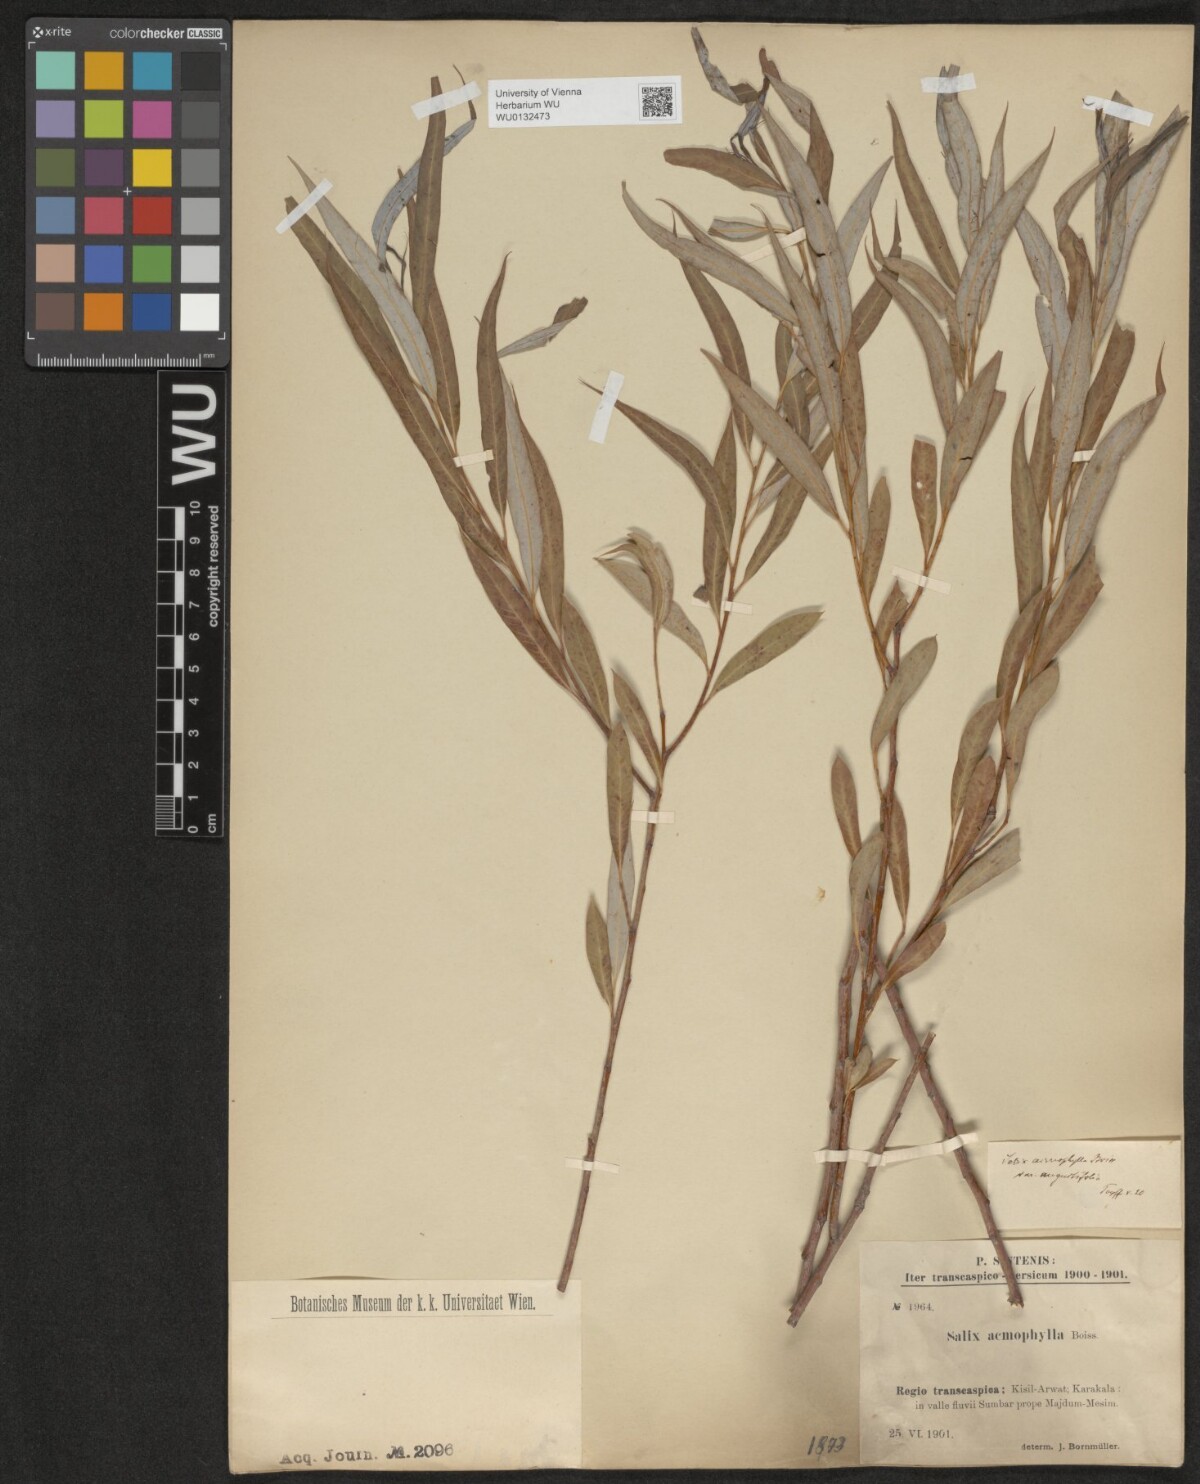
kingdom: Plantae
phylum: Tracheophyta
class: Magnoliopsida
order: Malpighiales
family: Salicaceae
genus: Salix
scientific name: Salix acmophylla
